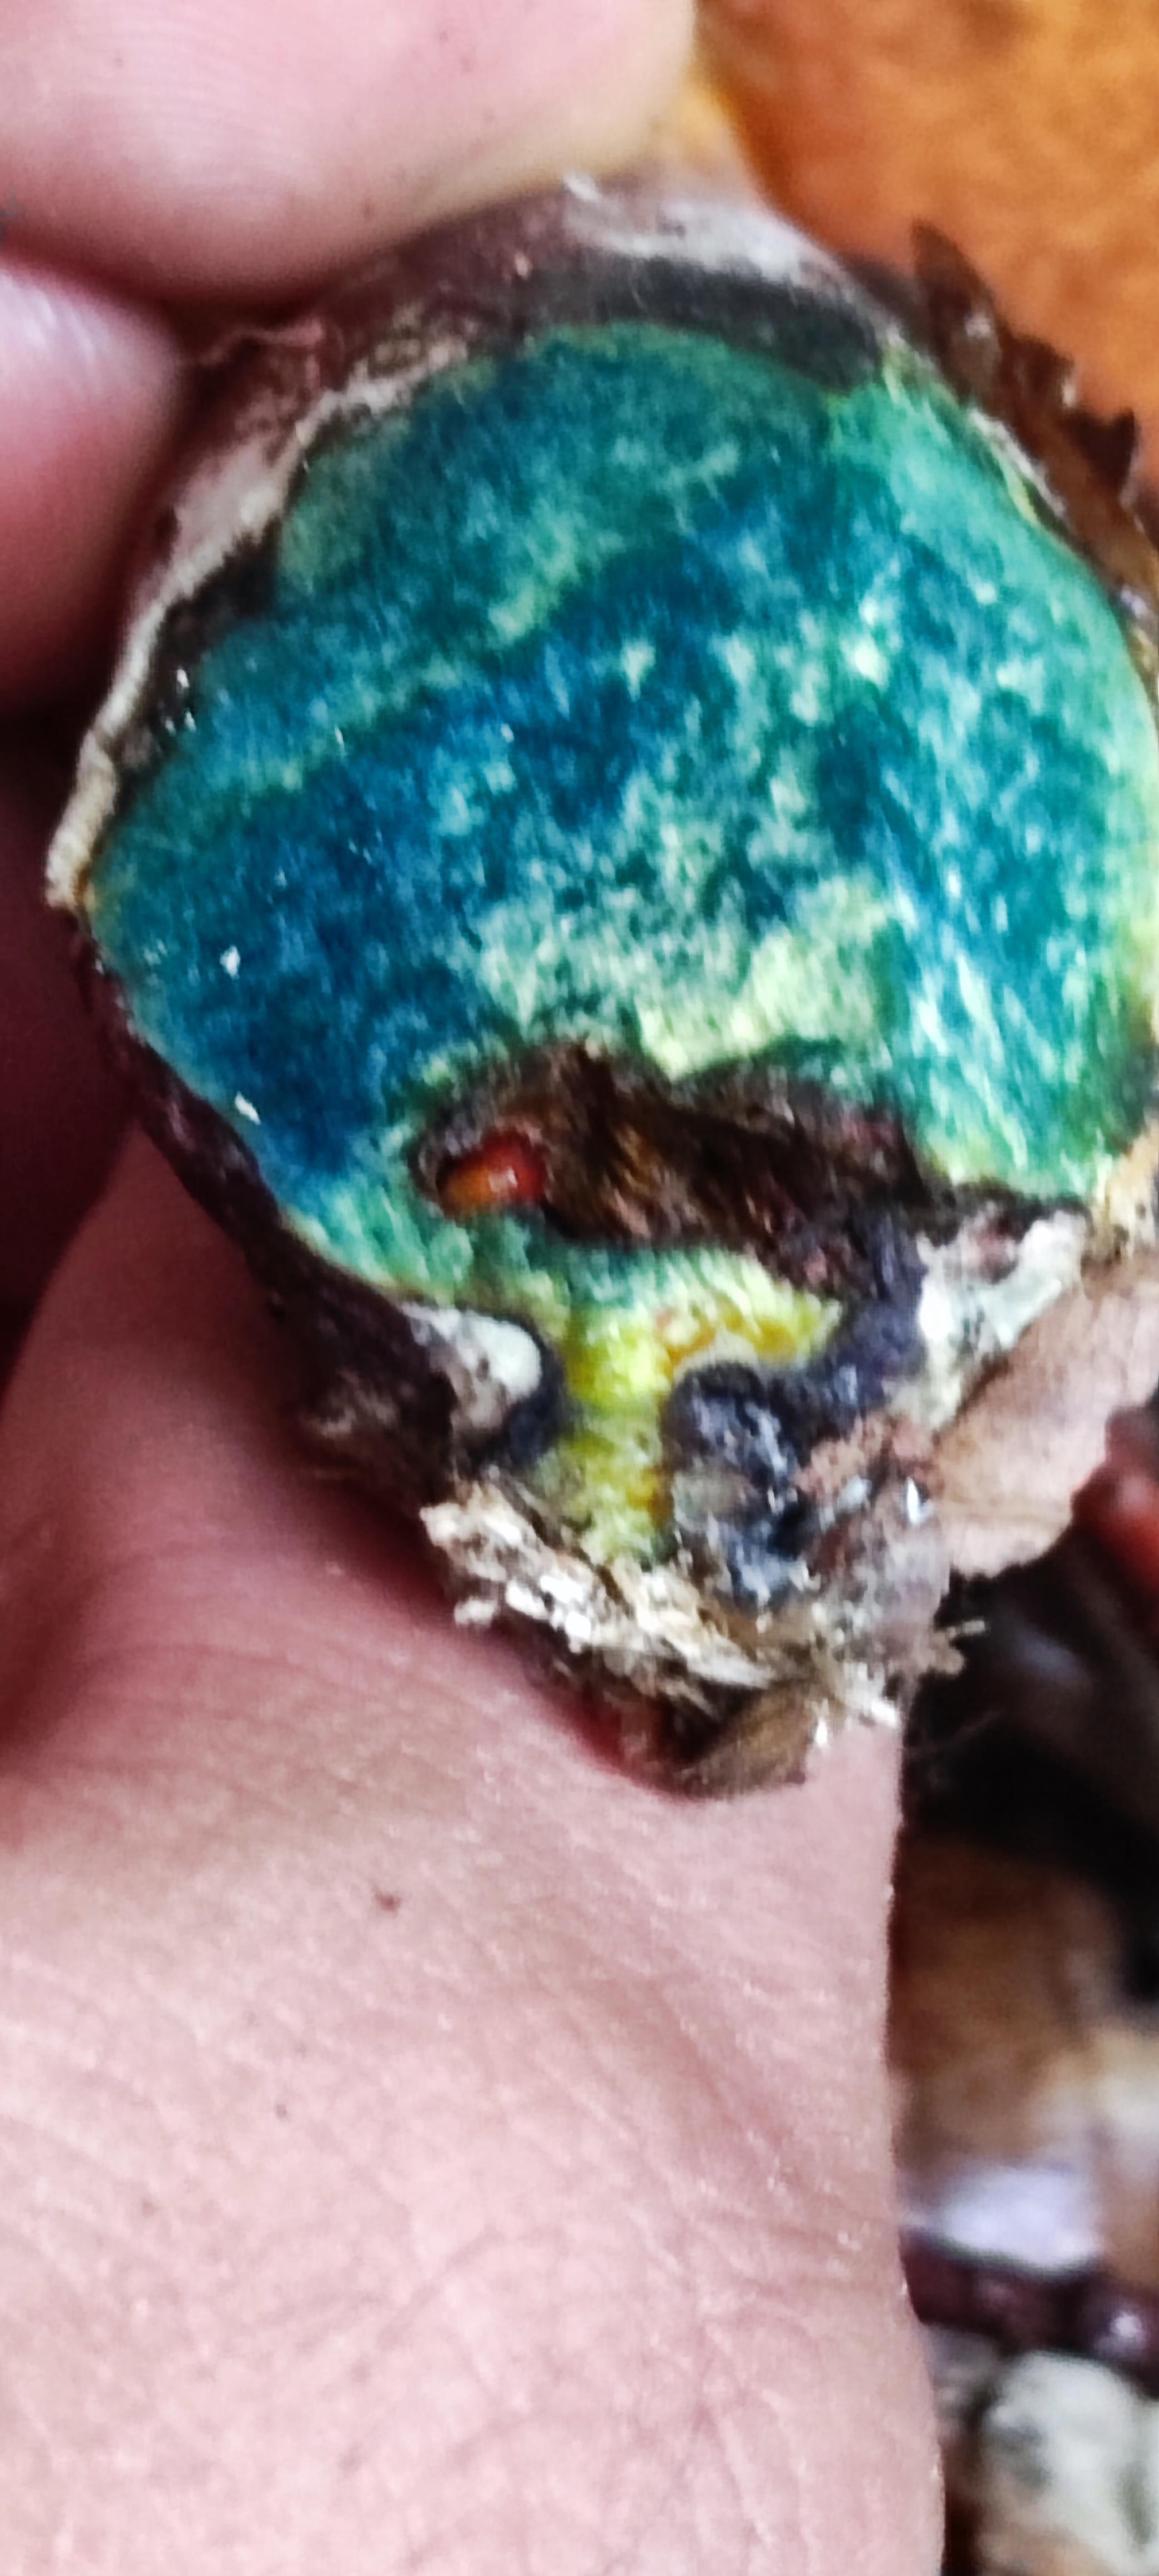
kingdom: Fungi
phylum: Basidiomycota
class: Agaricomycetes
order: Boletales
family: Boletaceae
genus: Neoboletus
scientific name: Neoboletus erythropus
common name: punktstokket indigorørhat
